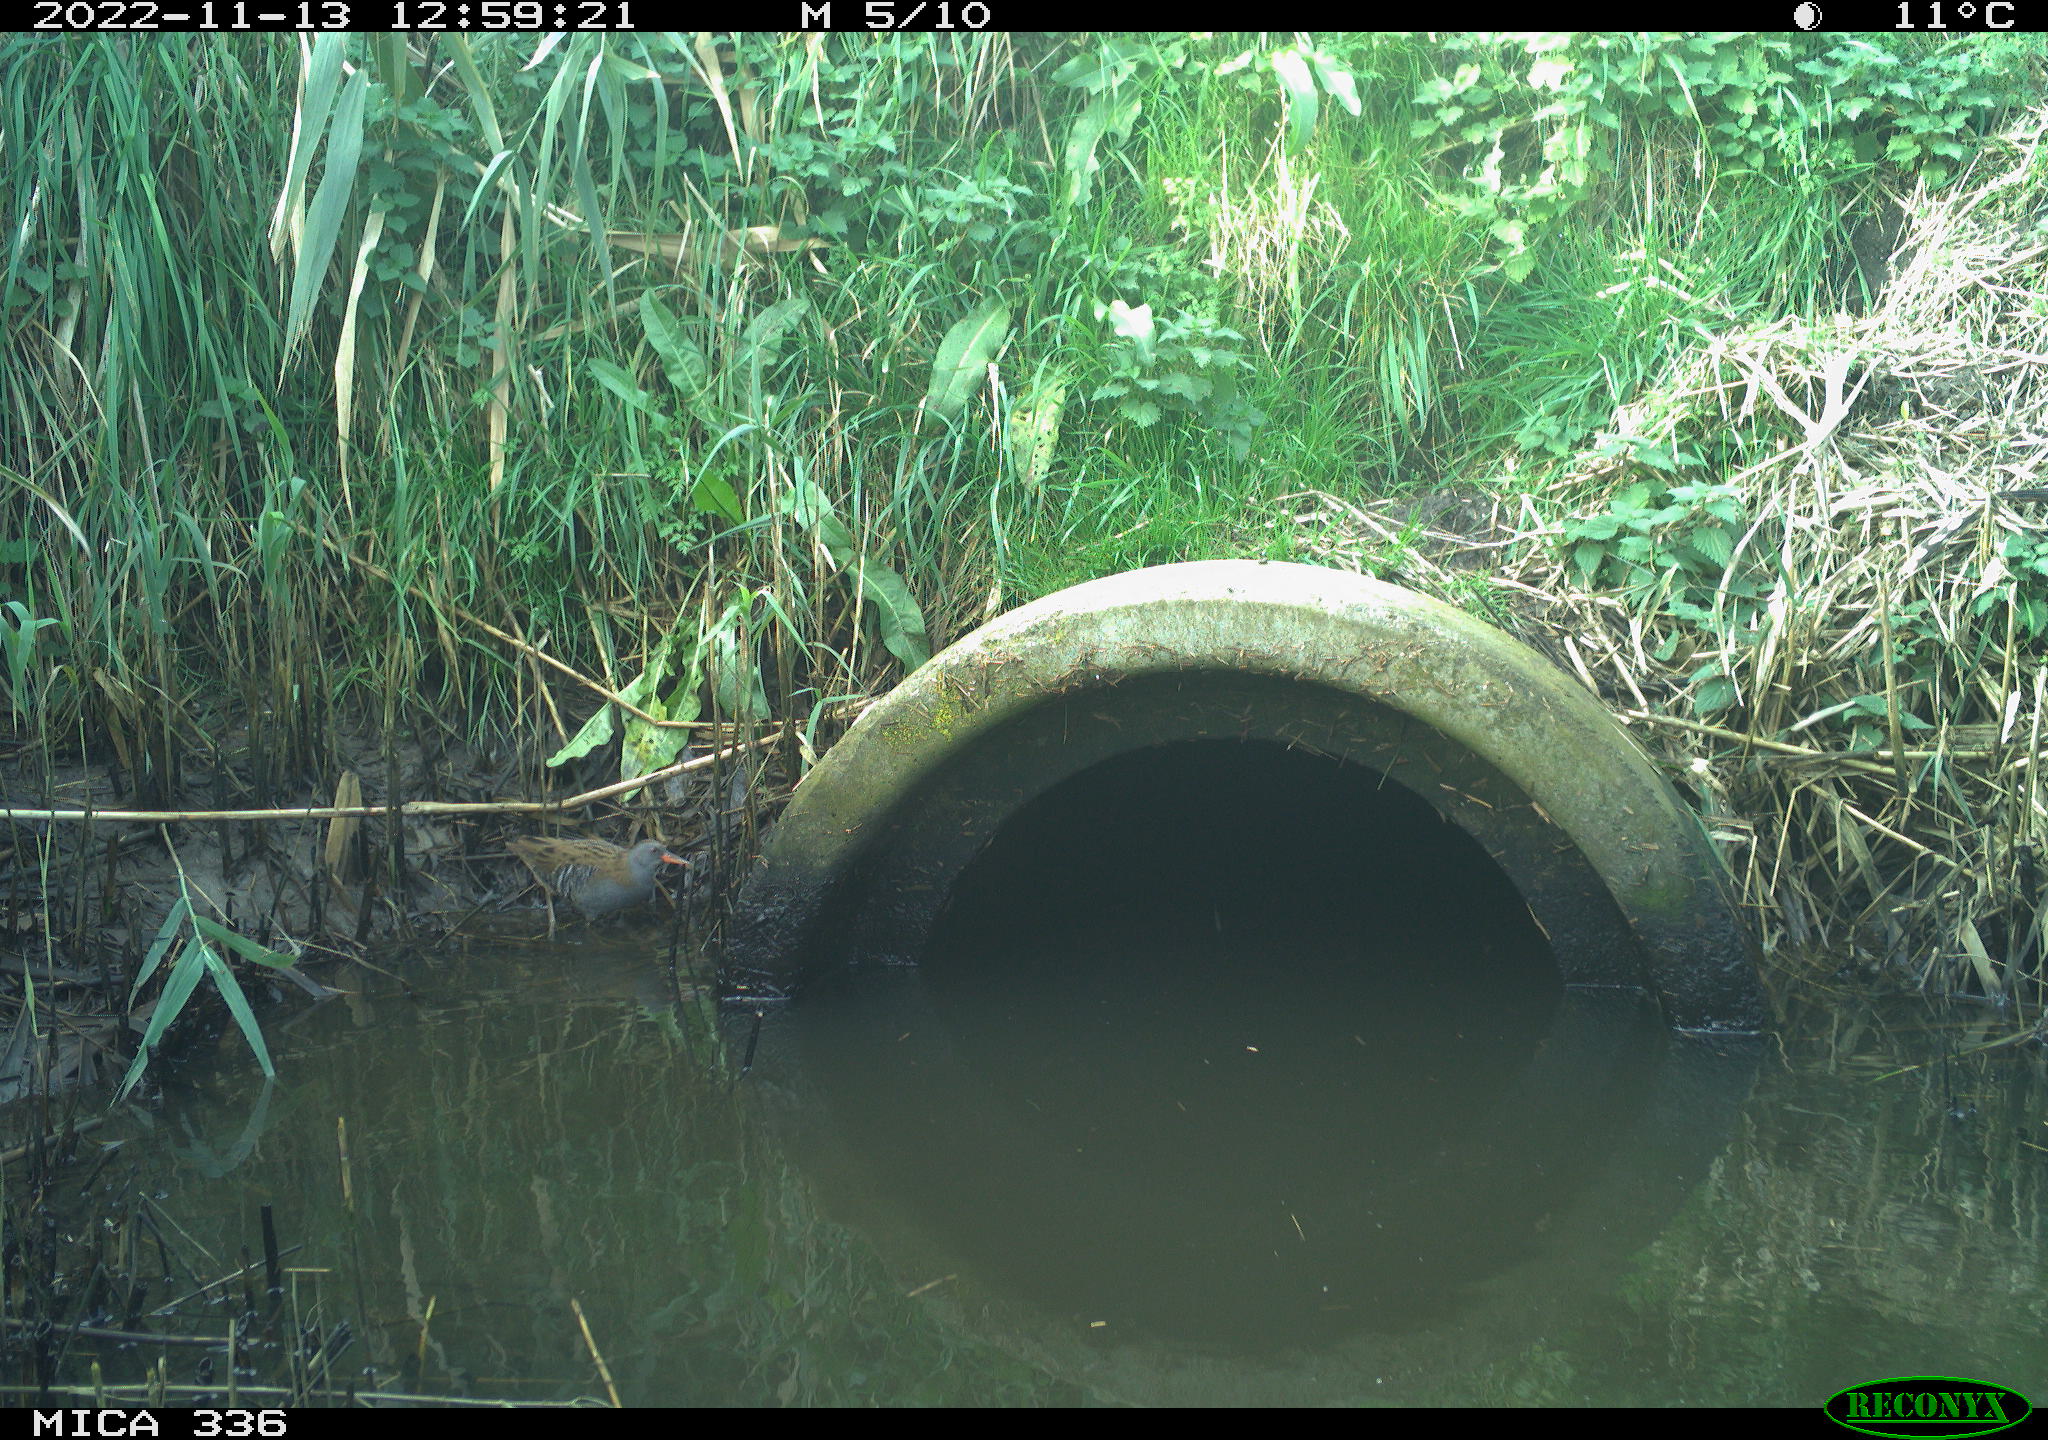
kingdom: Animalia
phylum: Chordata
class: Aves
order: Gruiformes
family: Rallidae
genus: Rallus
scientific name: Rallus aquaticus
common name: Water rail
